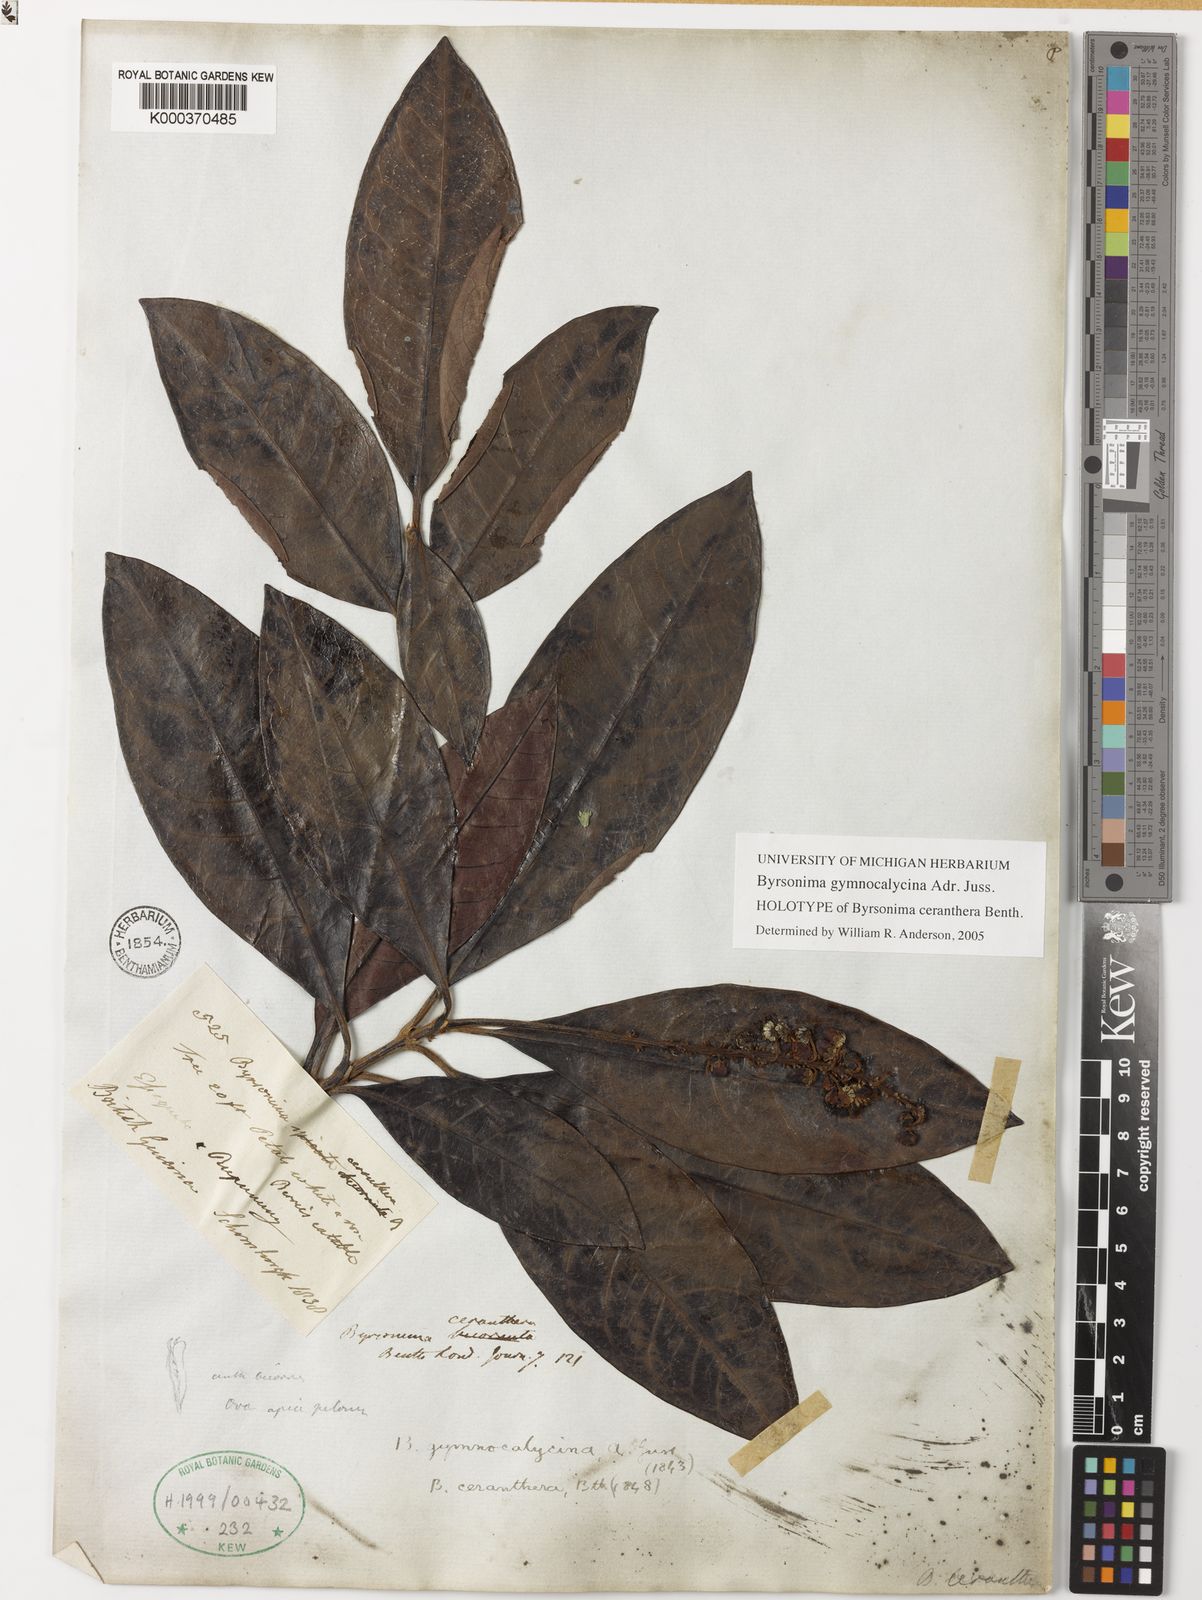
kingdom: Plantae
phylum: Tracheophyta
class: Magnoliopsida
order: Malpighiales
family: Malpighiaceae
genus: Byrsonima
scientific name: Byrsonima gymnocalycina
